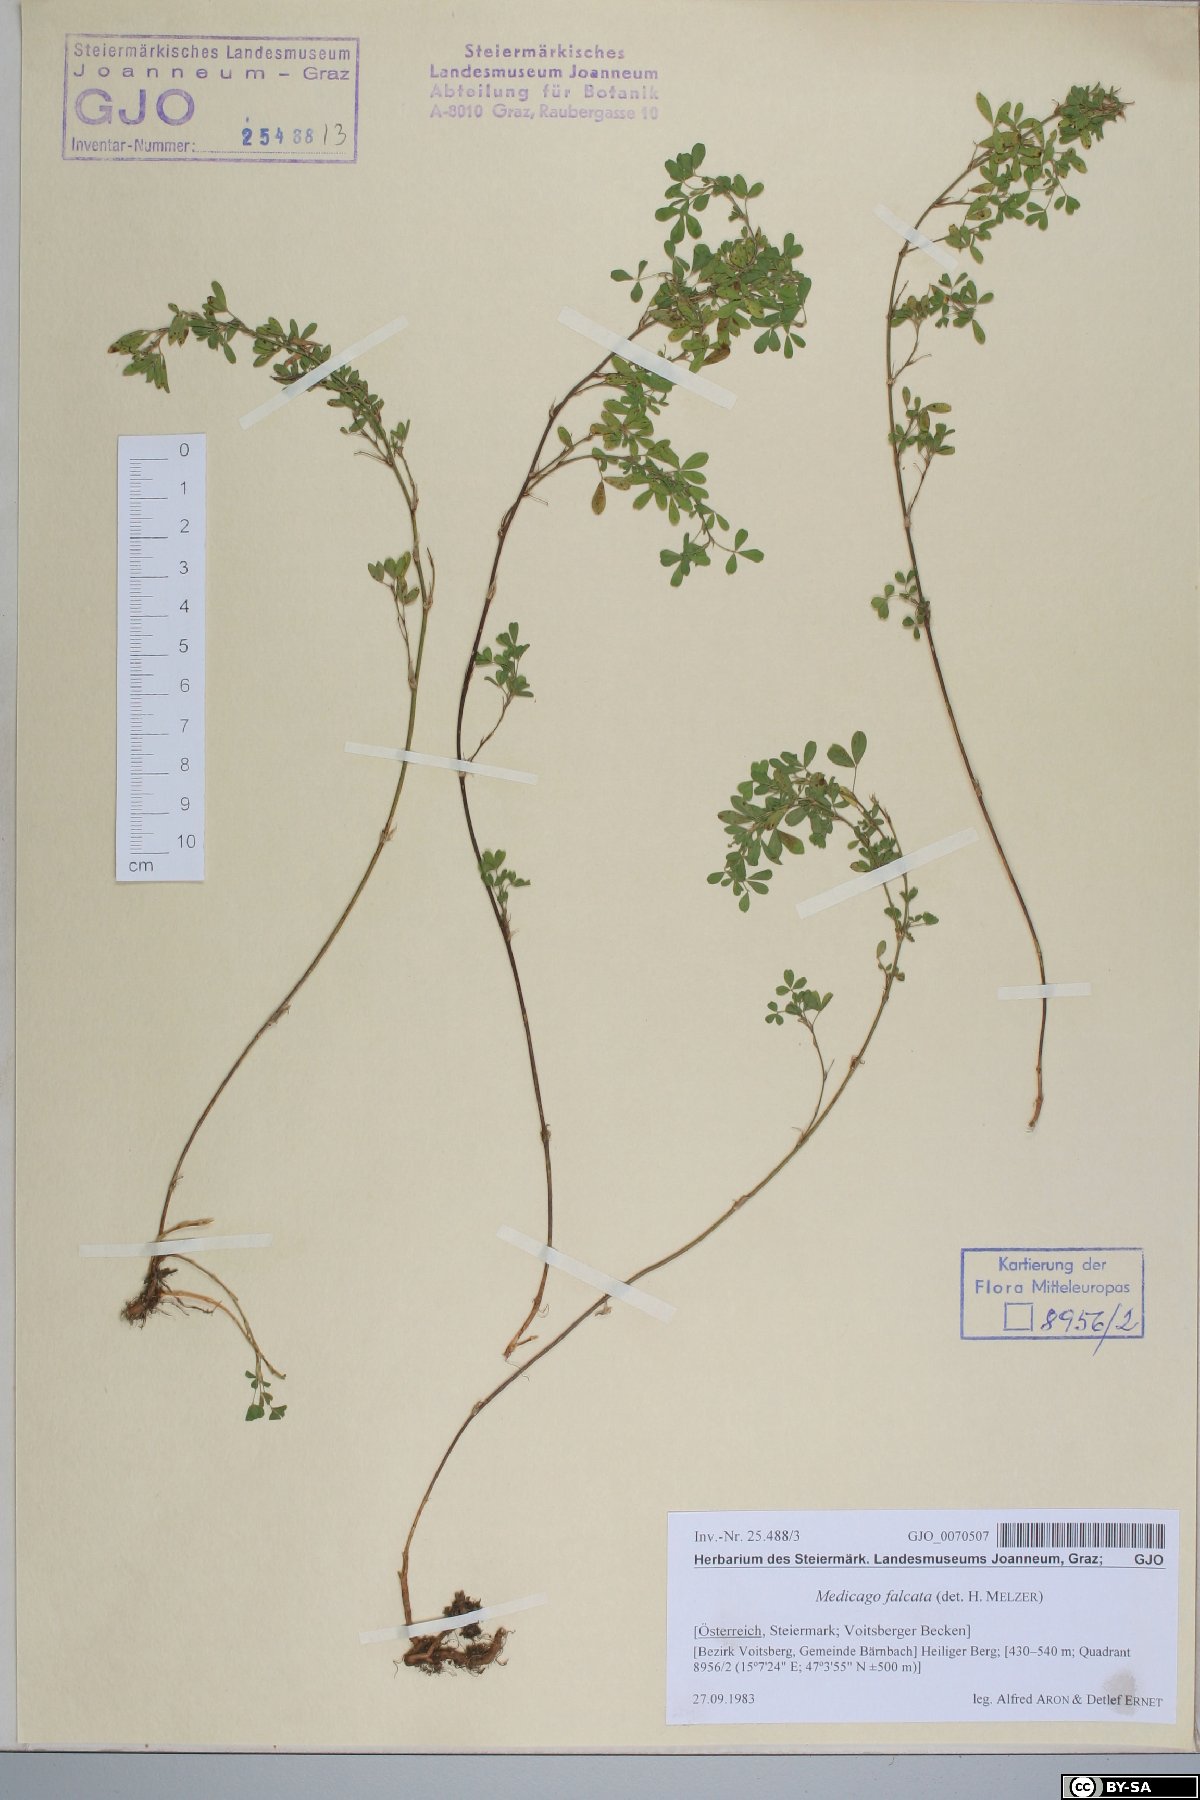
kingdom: Plantae
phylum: Tracheophyta
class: Magnoliopsida
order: Fabales
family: Fabaceae
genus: Medicago
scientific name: Medicago falcata
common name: Sickle medick
